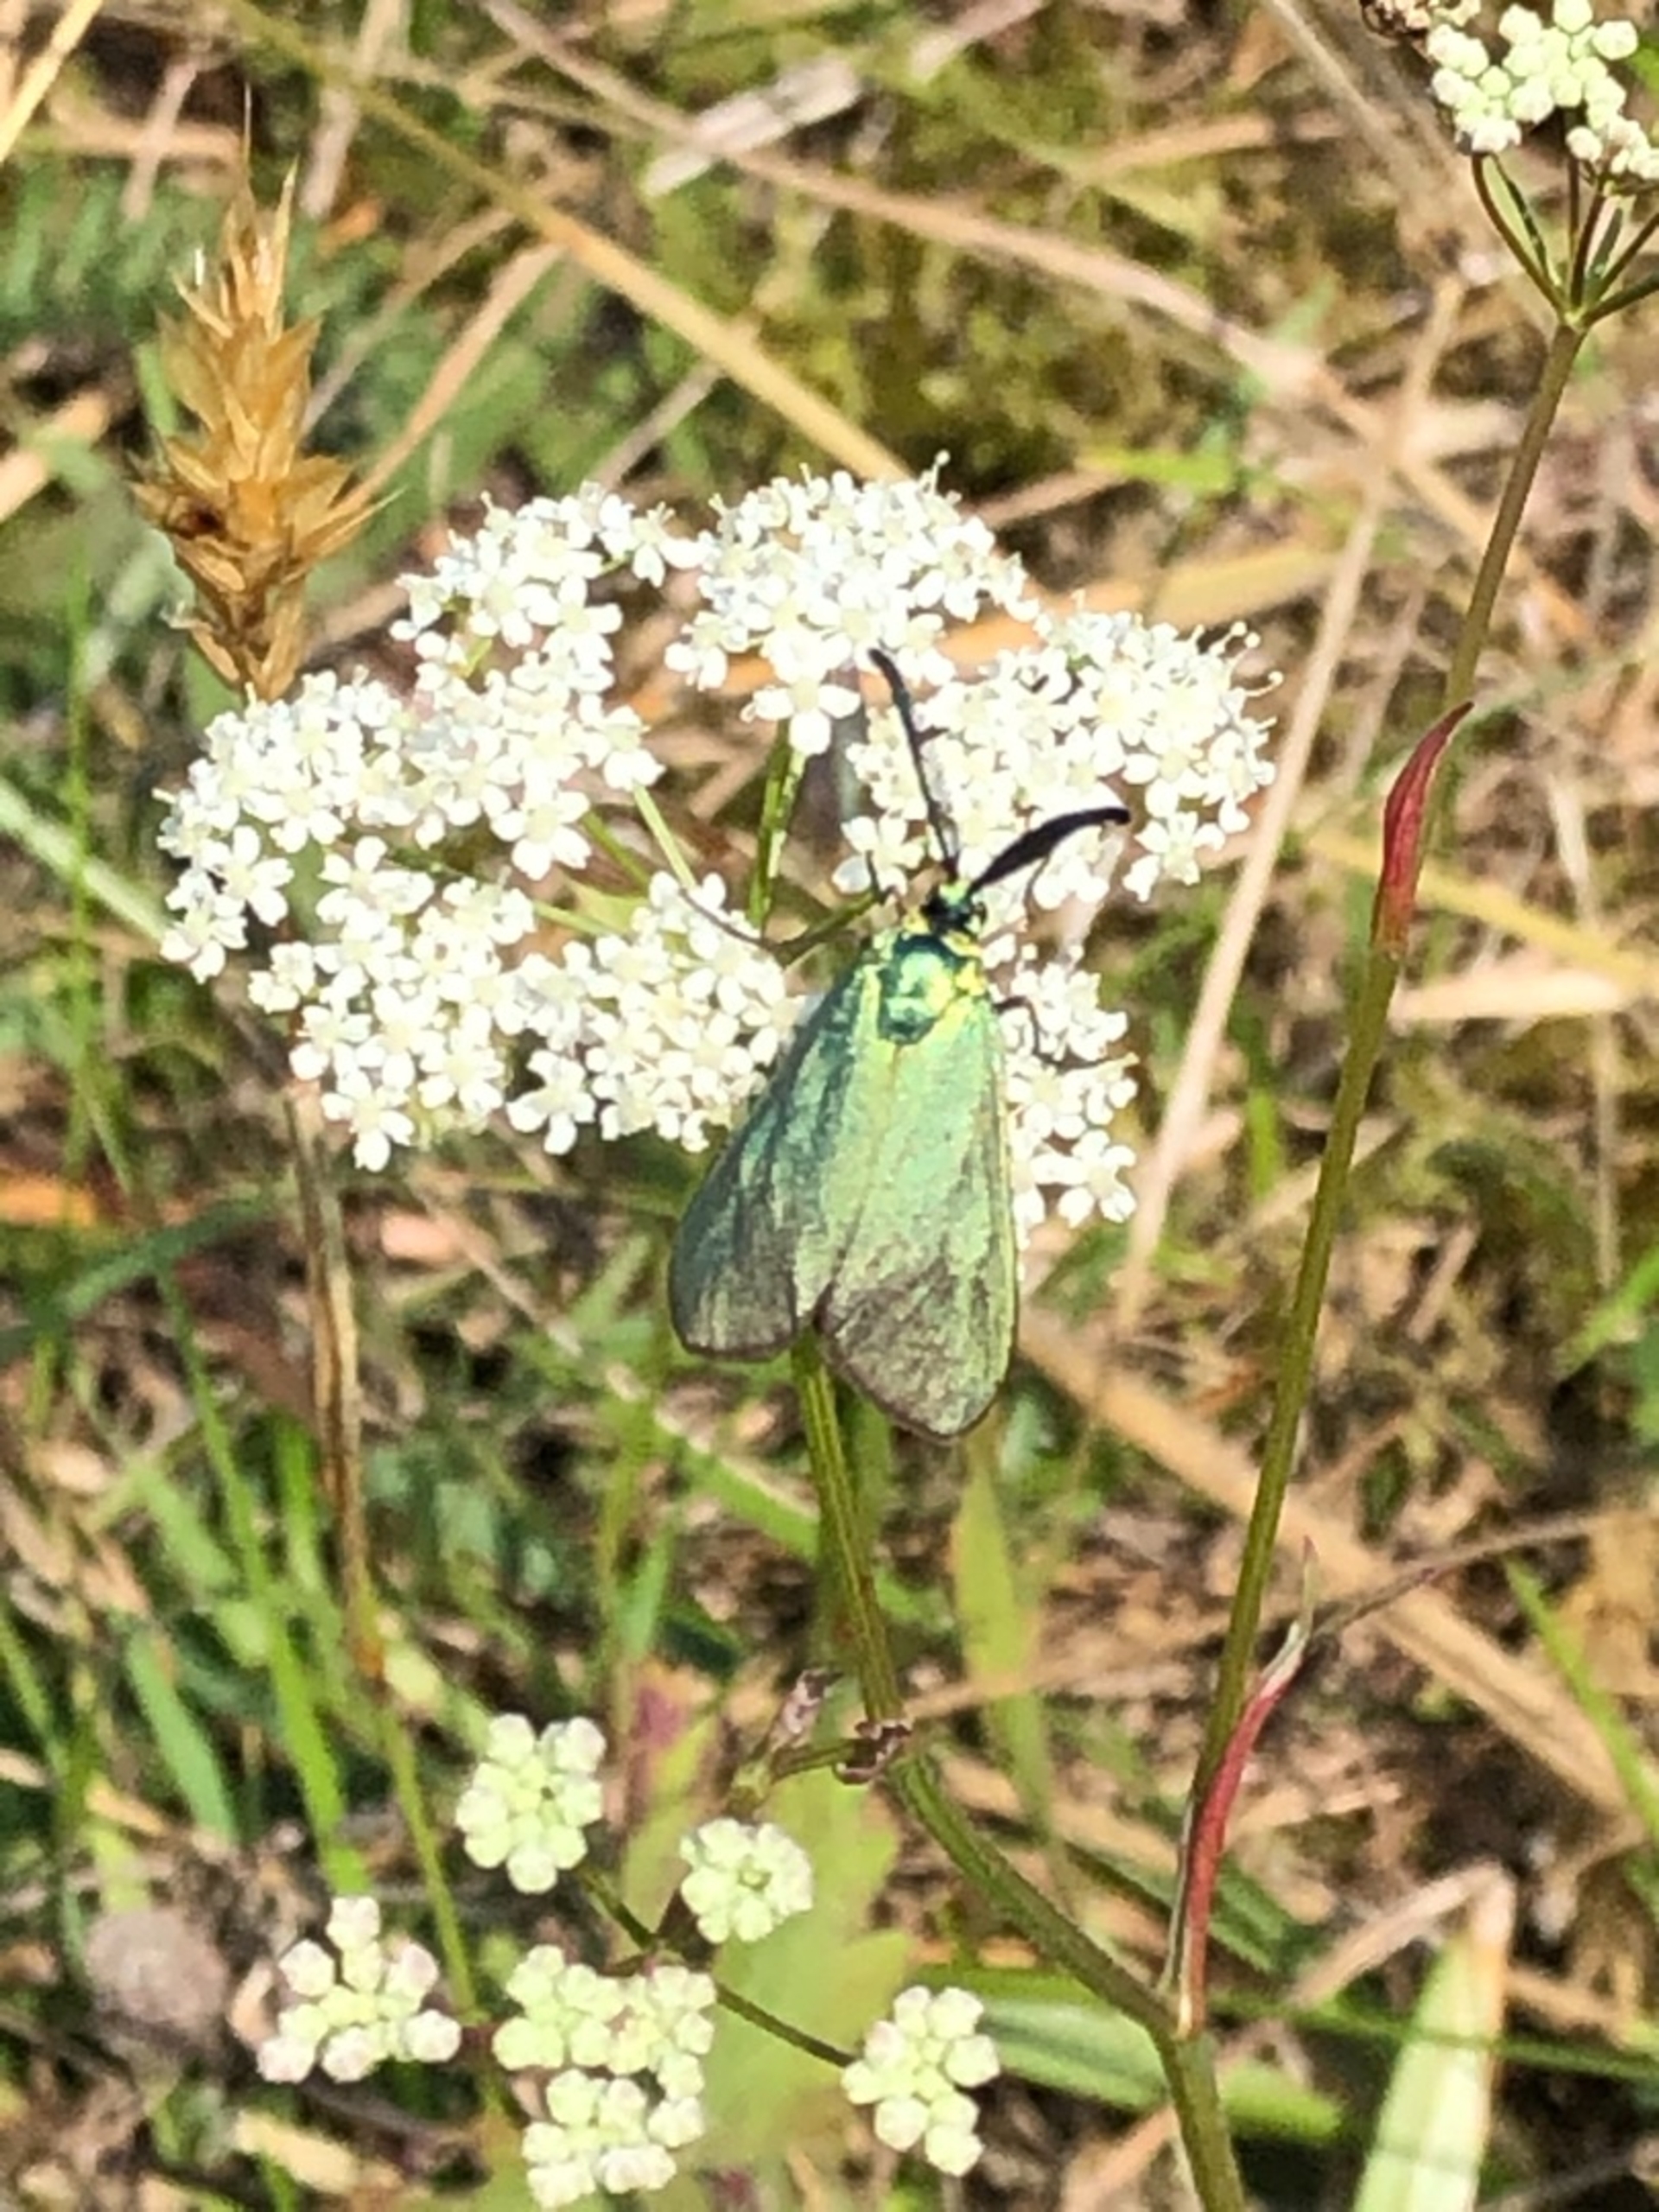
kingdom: Animalia
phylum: Arthropoda
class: Insecta
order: Lepidoptera
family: Zygaenidae
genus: Adscita
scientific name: Adscita statices
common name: Metalvinge
